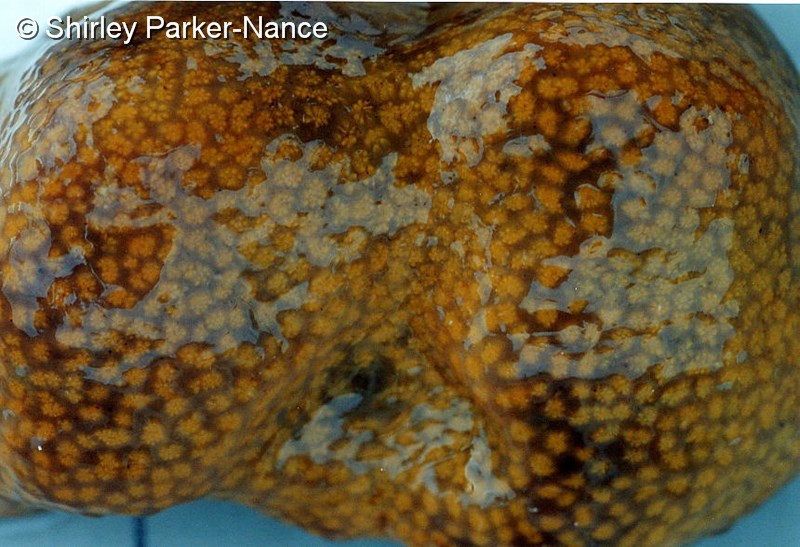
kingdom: Animalia
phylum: Chordata
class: Ascidiacea
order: Aplousobranchia
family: Polyclinidae
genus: Synoicum
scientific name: Synoicum
